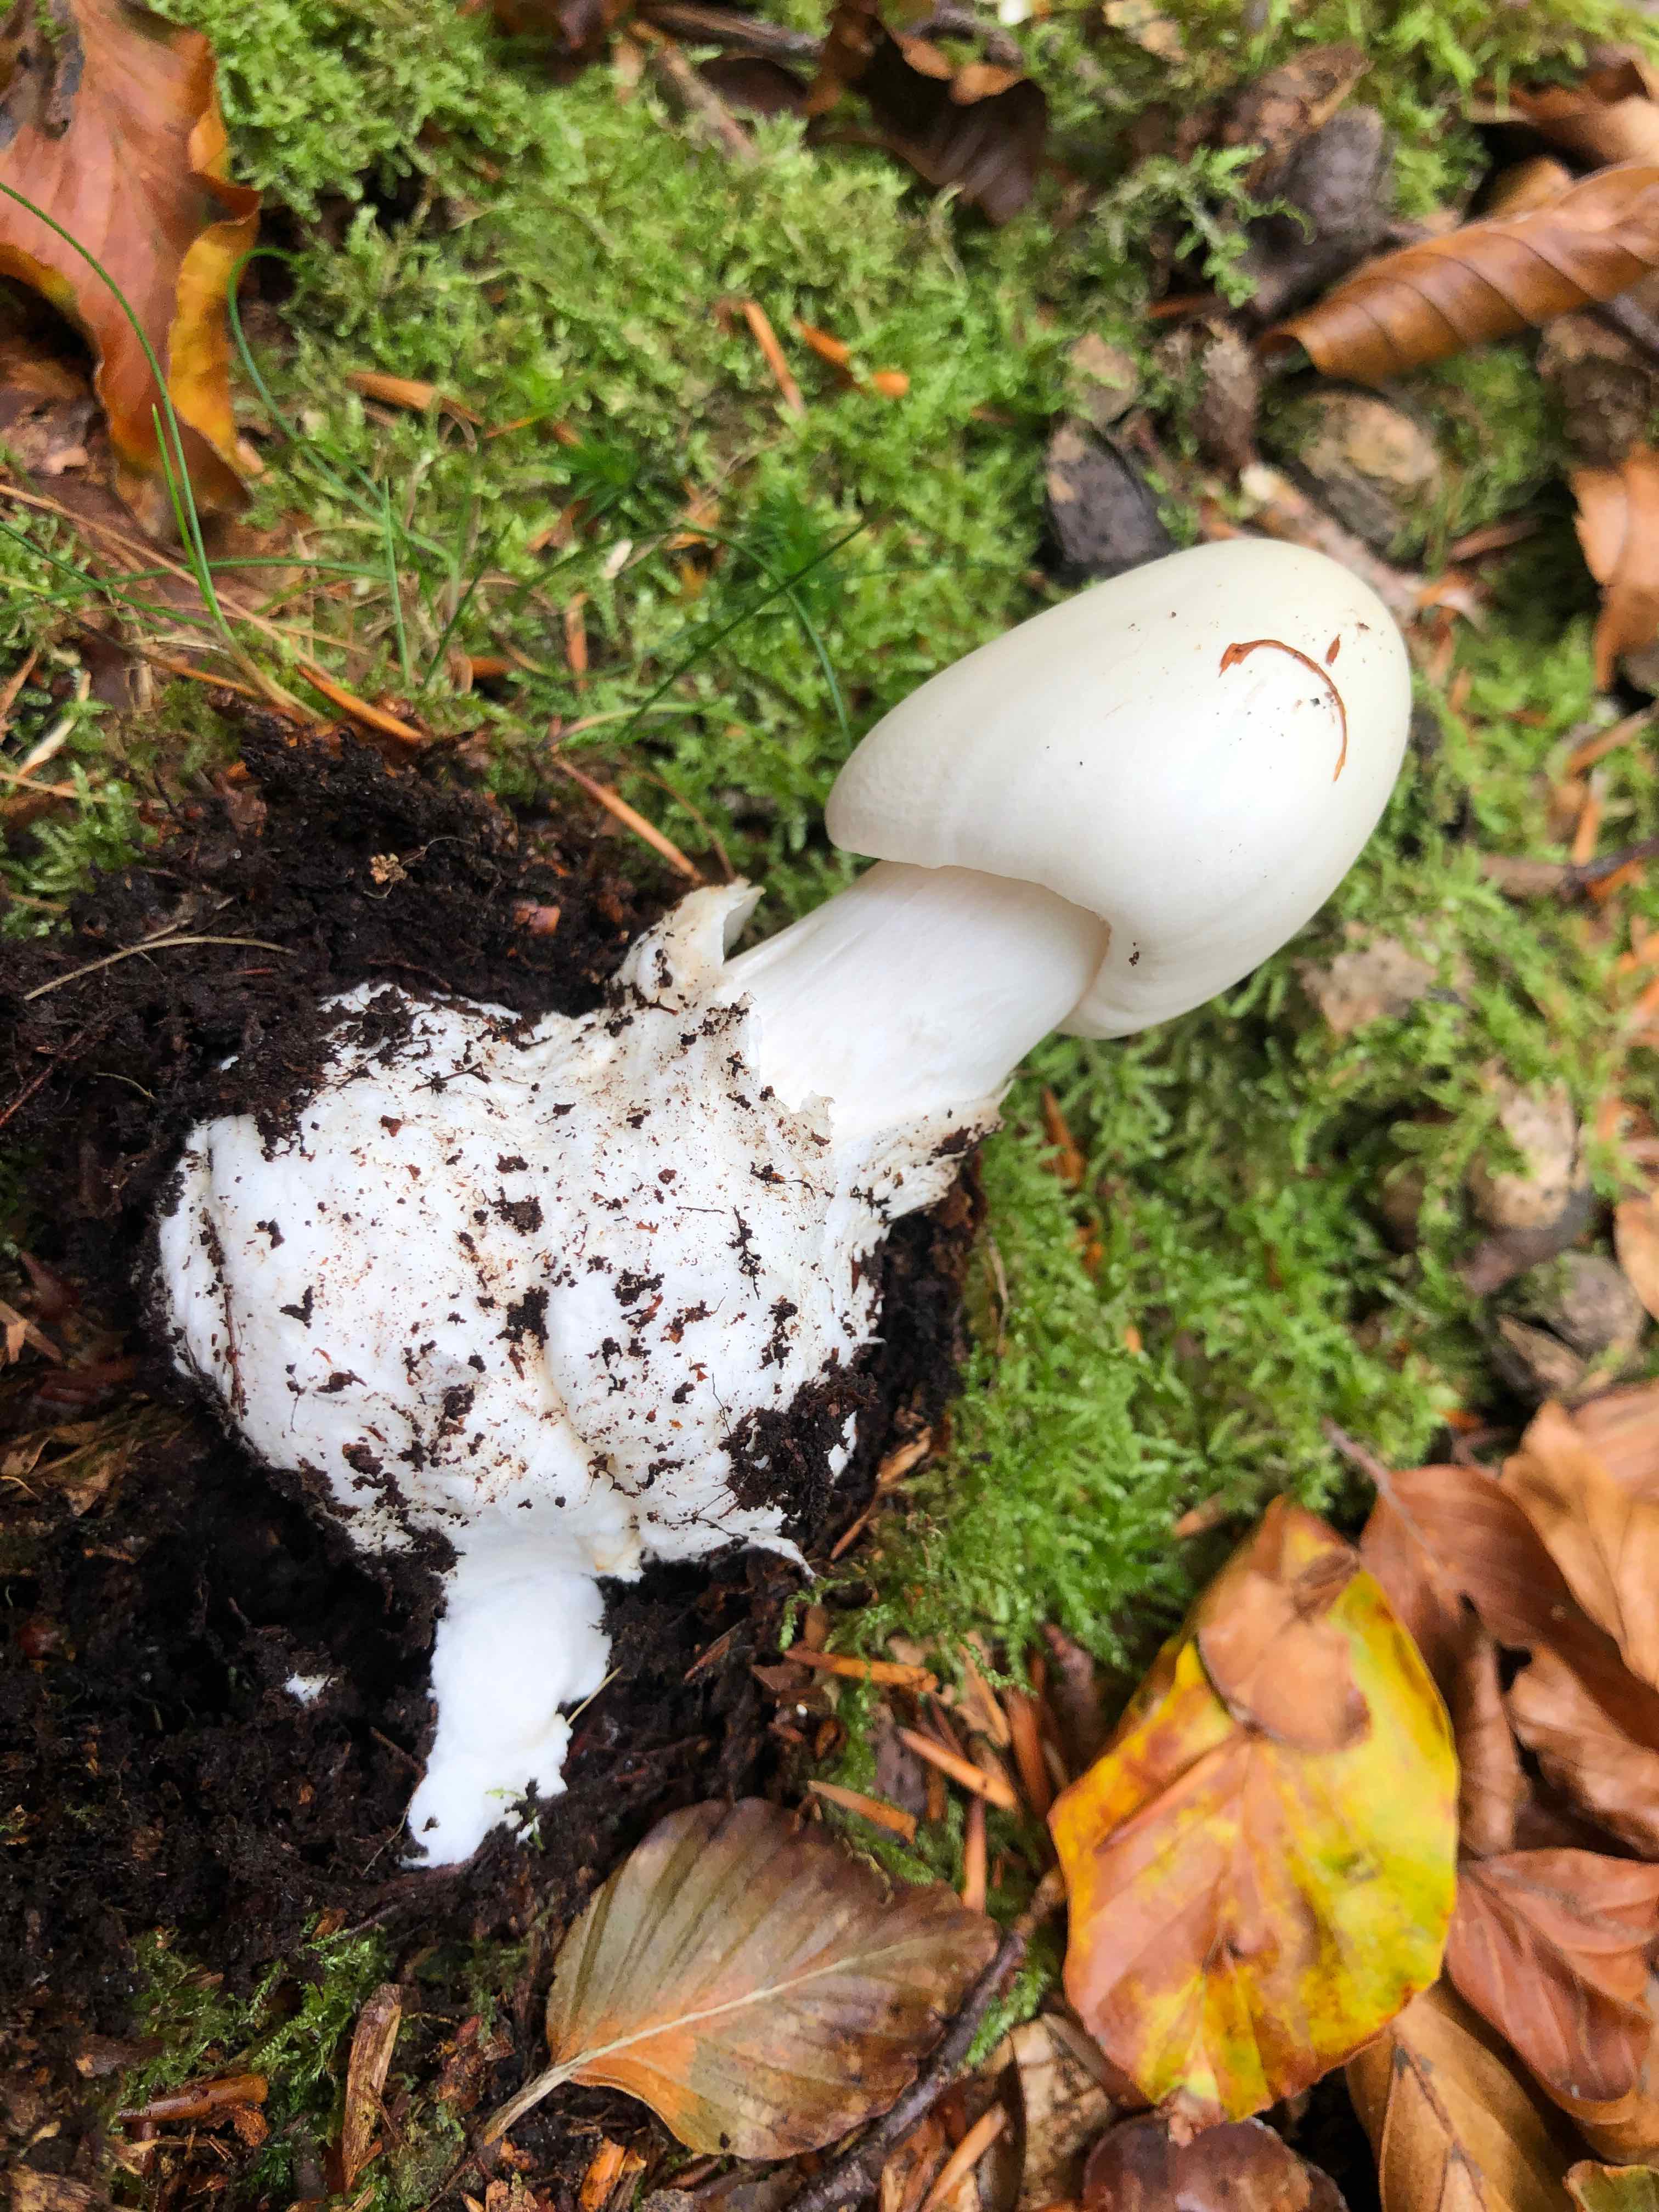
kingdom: Fungi
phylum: Basidiomycota
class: Agaricomycetes
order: Agaricales
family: Amanitaceae
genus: Amanita
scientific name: Amanita virosa
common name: snehvid fluesvamp
